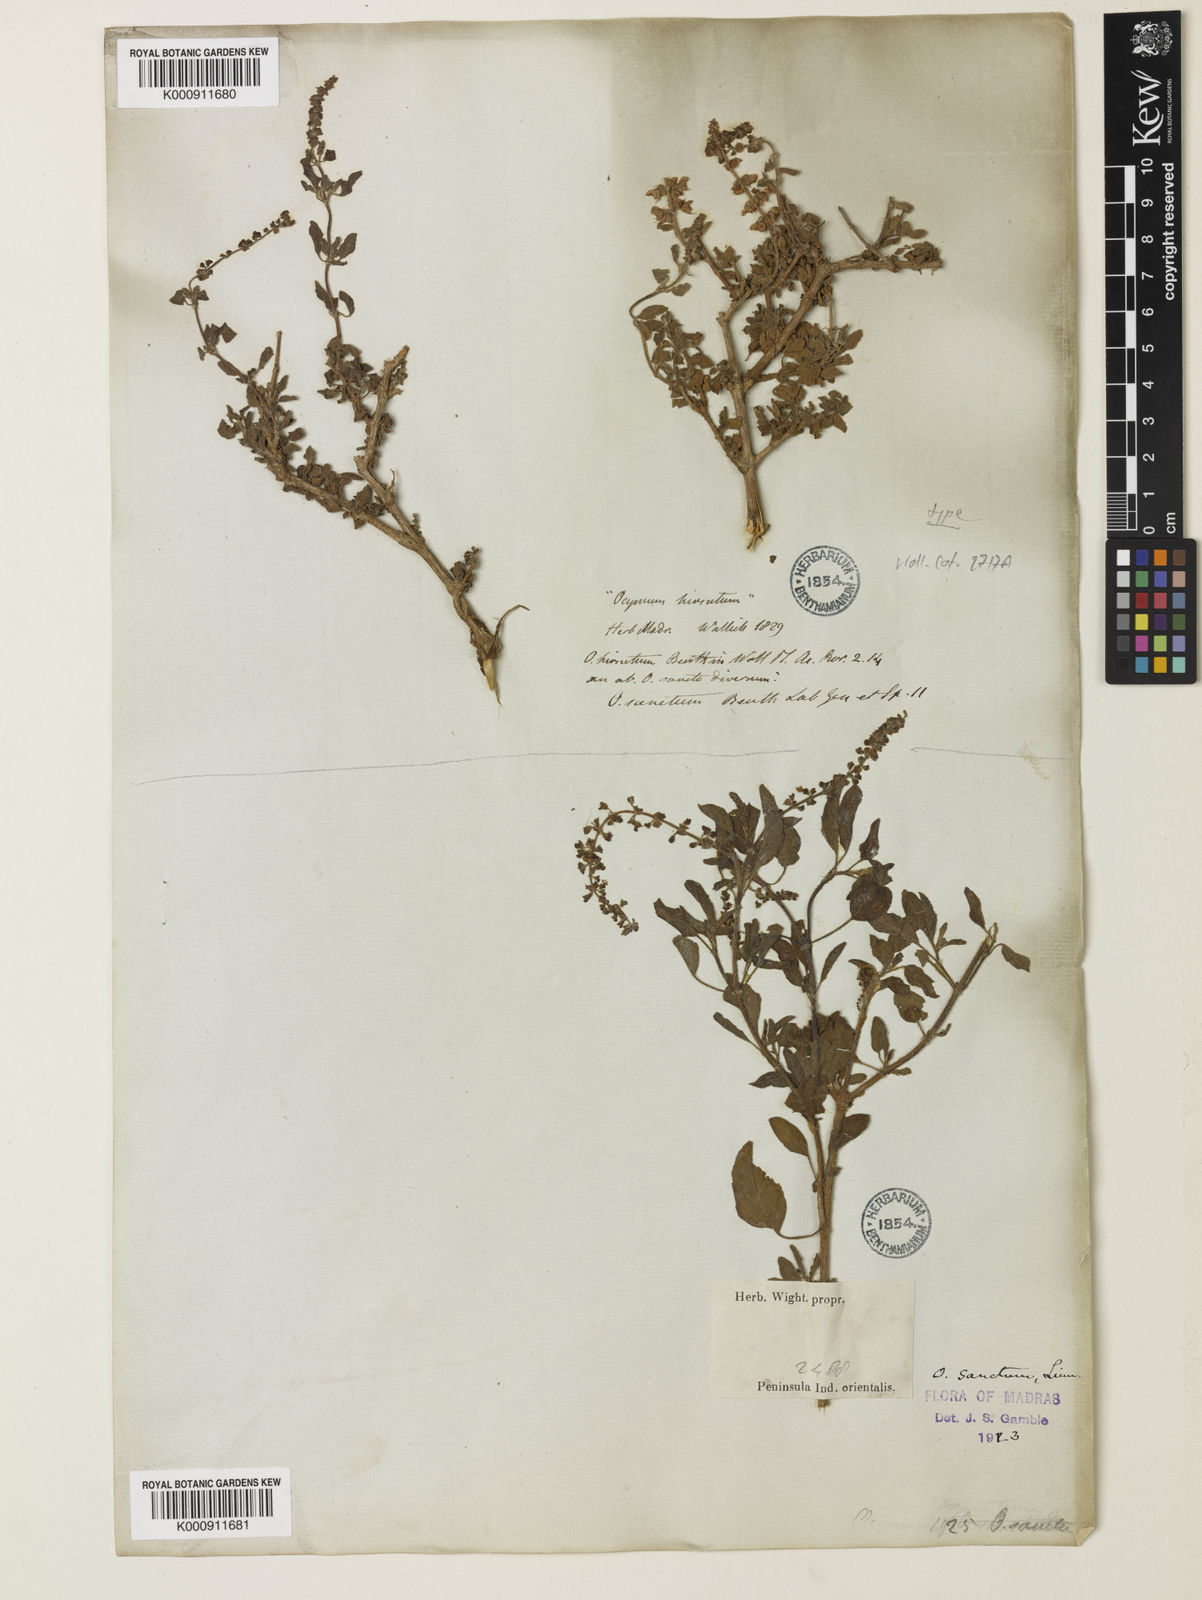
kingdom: Plantae
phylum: Tracheophyta
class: Magnoliopsida
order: Lamiales
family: Lamiaceae
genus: Ocimum
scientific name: Ocimum tenuiflorum
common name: Sacred basil
